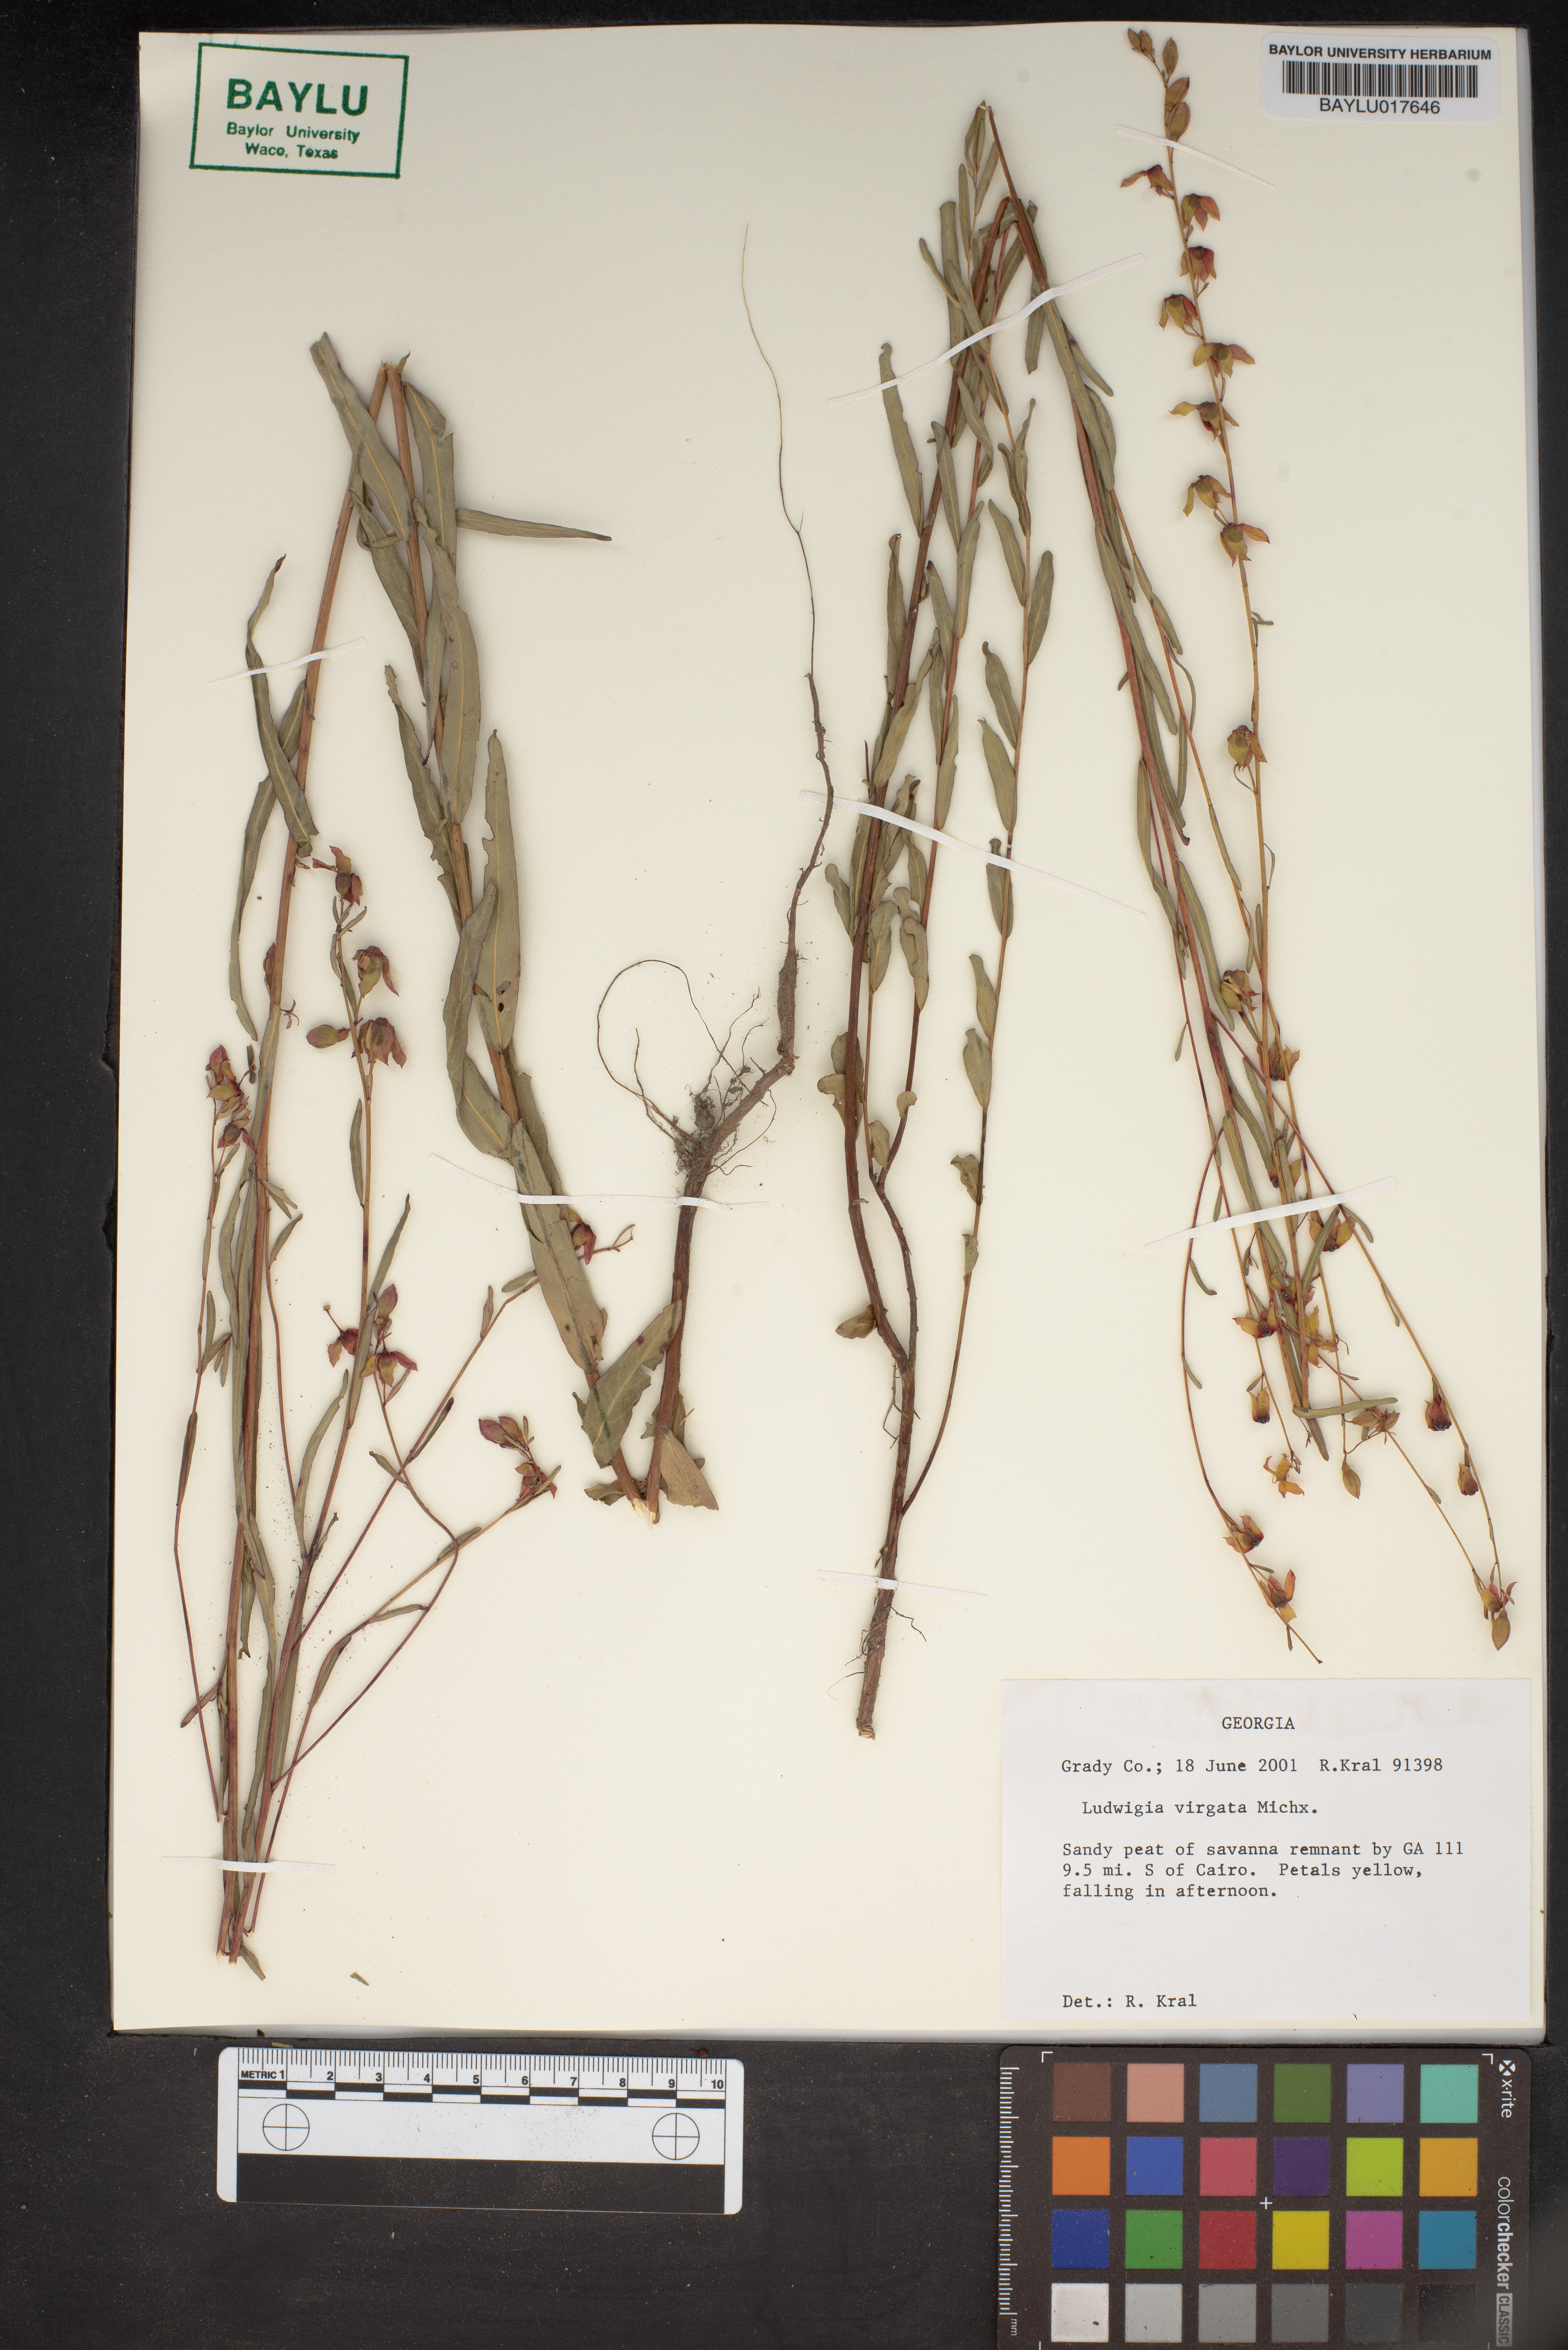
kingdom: Plantae
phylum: Tracheophyta
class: Magnoliopsida
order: Myrtales
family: Onagraceae
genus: Ludwigia
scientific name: Ludwigia virgata
